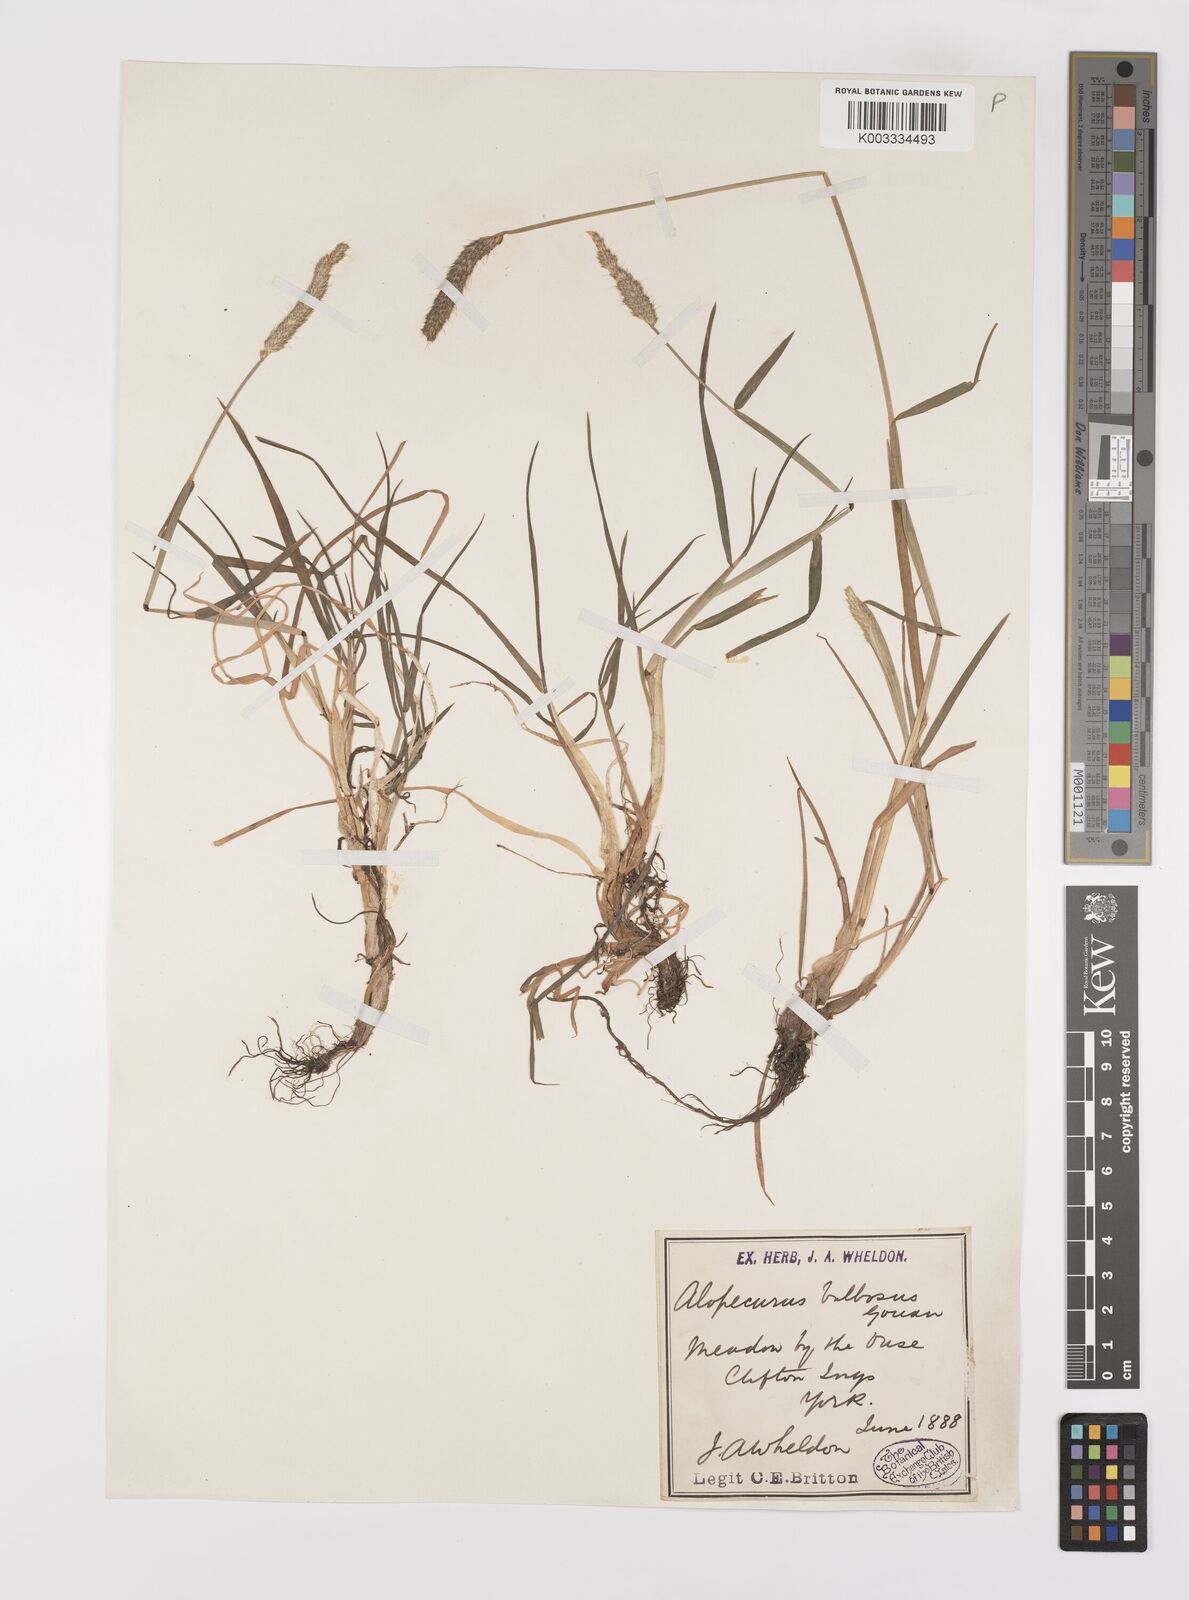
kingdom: Plantae
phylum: Tracheophyta
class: Liliopsida
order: Poales
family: Poaceae
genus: Alopecurus
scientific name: Alopecurus bulbosus
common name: Bulbous foxtail
